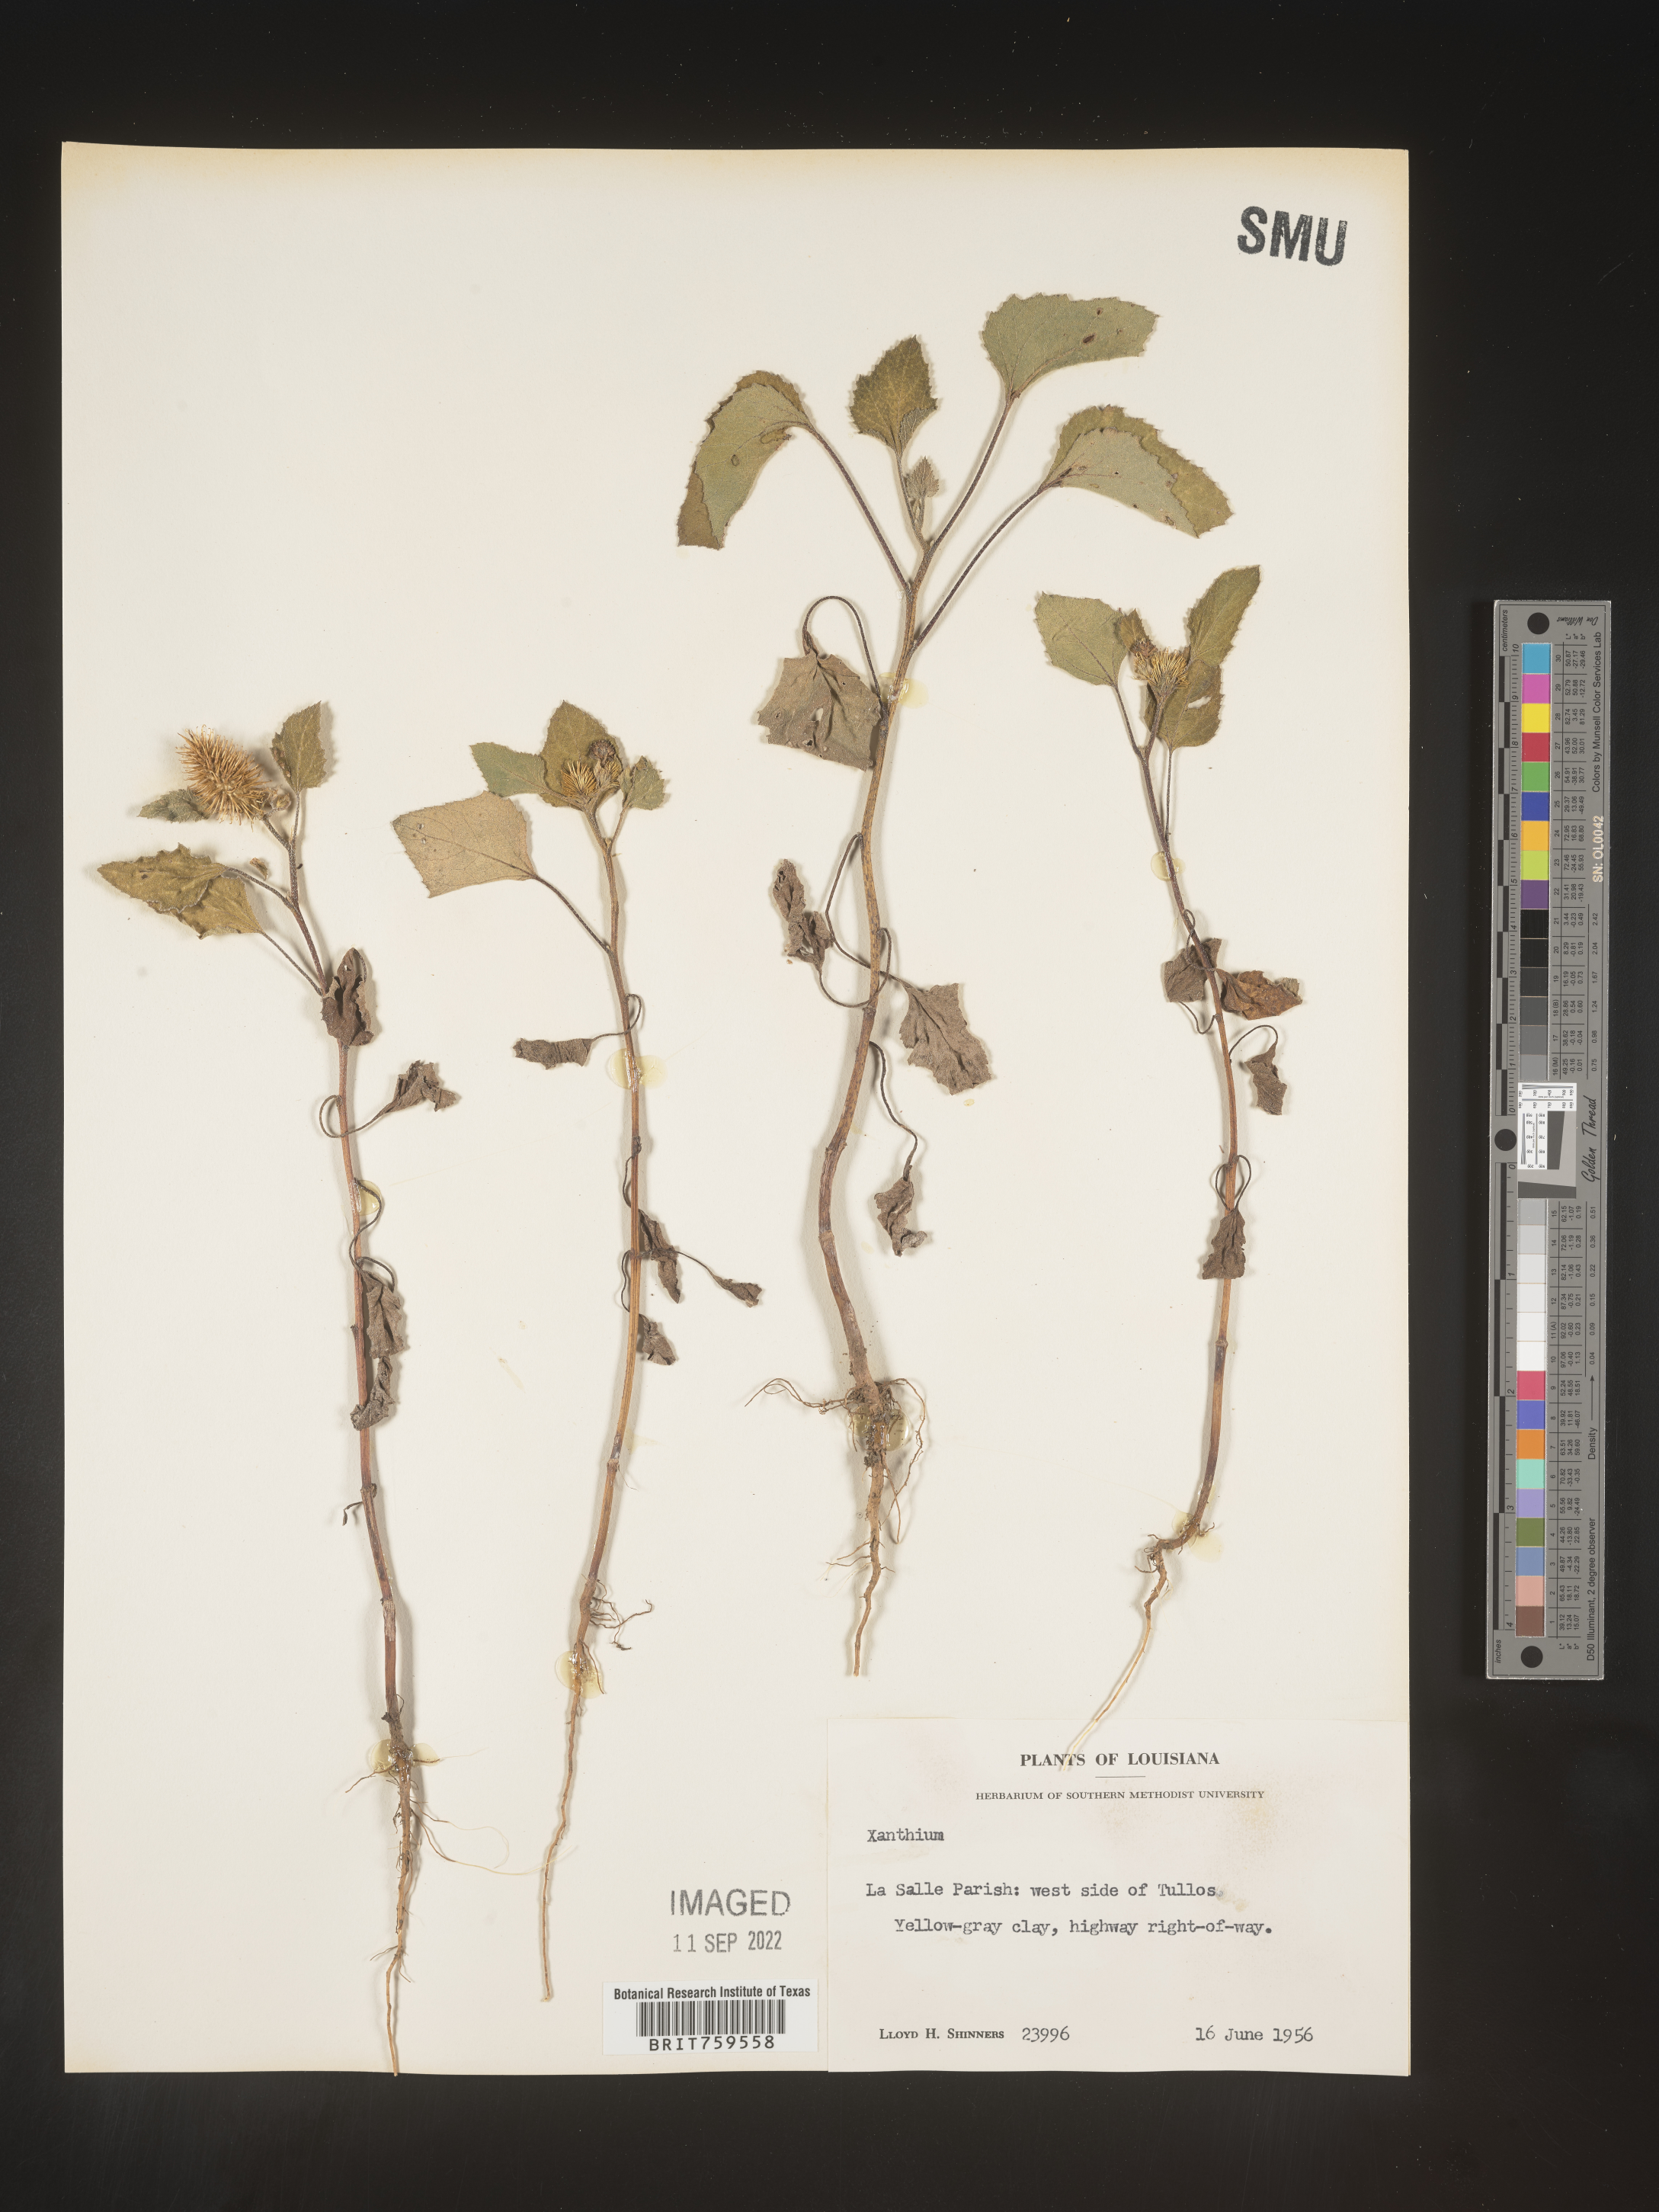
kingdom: Plantae
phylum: Tracheophyta
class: Magnoliopsida
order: Asterales
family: Asteraceae
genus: Xanthium
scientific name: Xanthium
